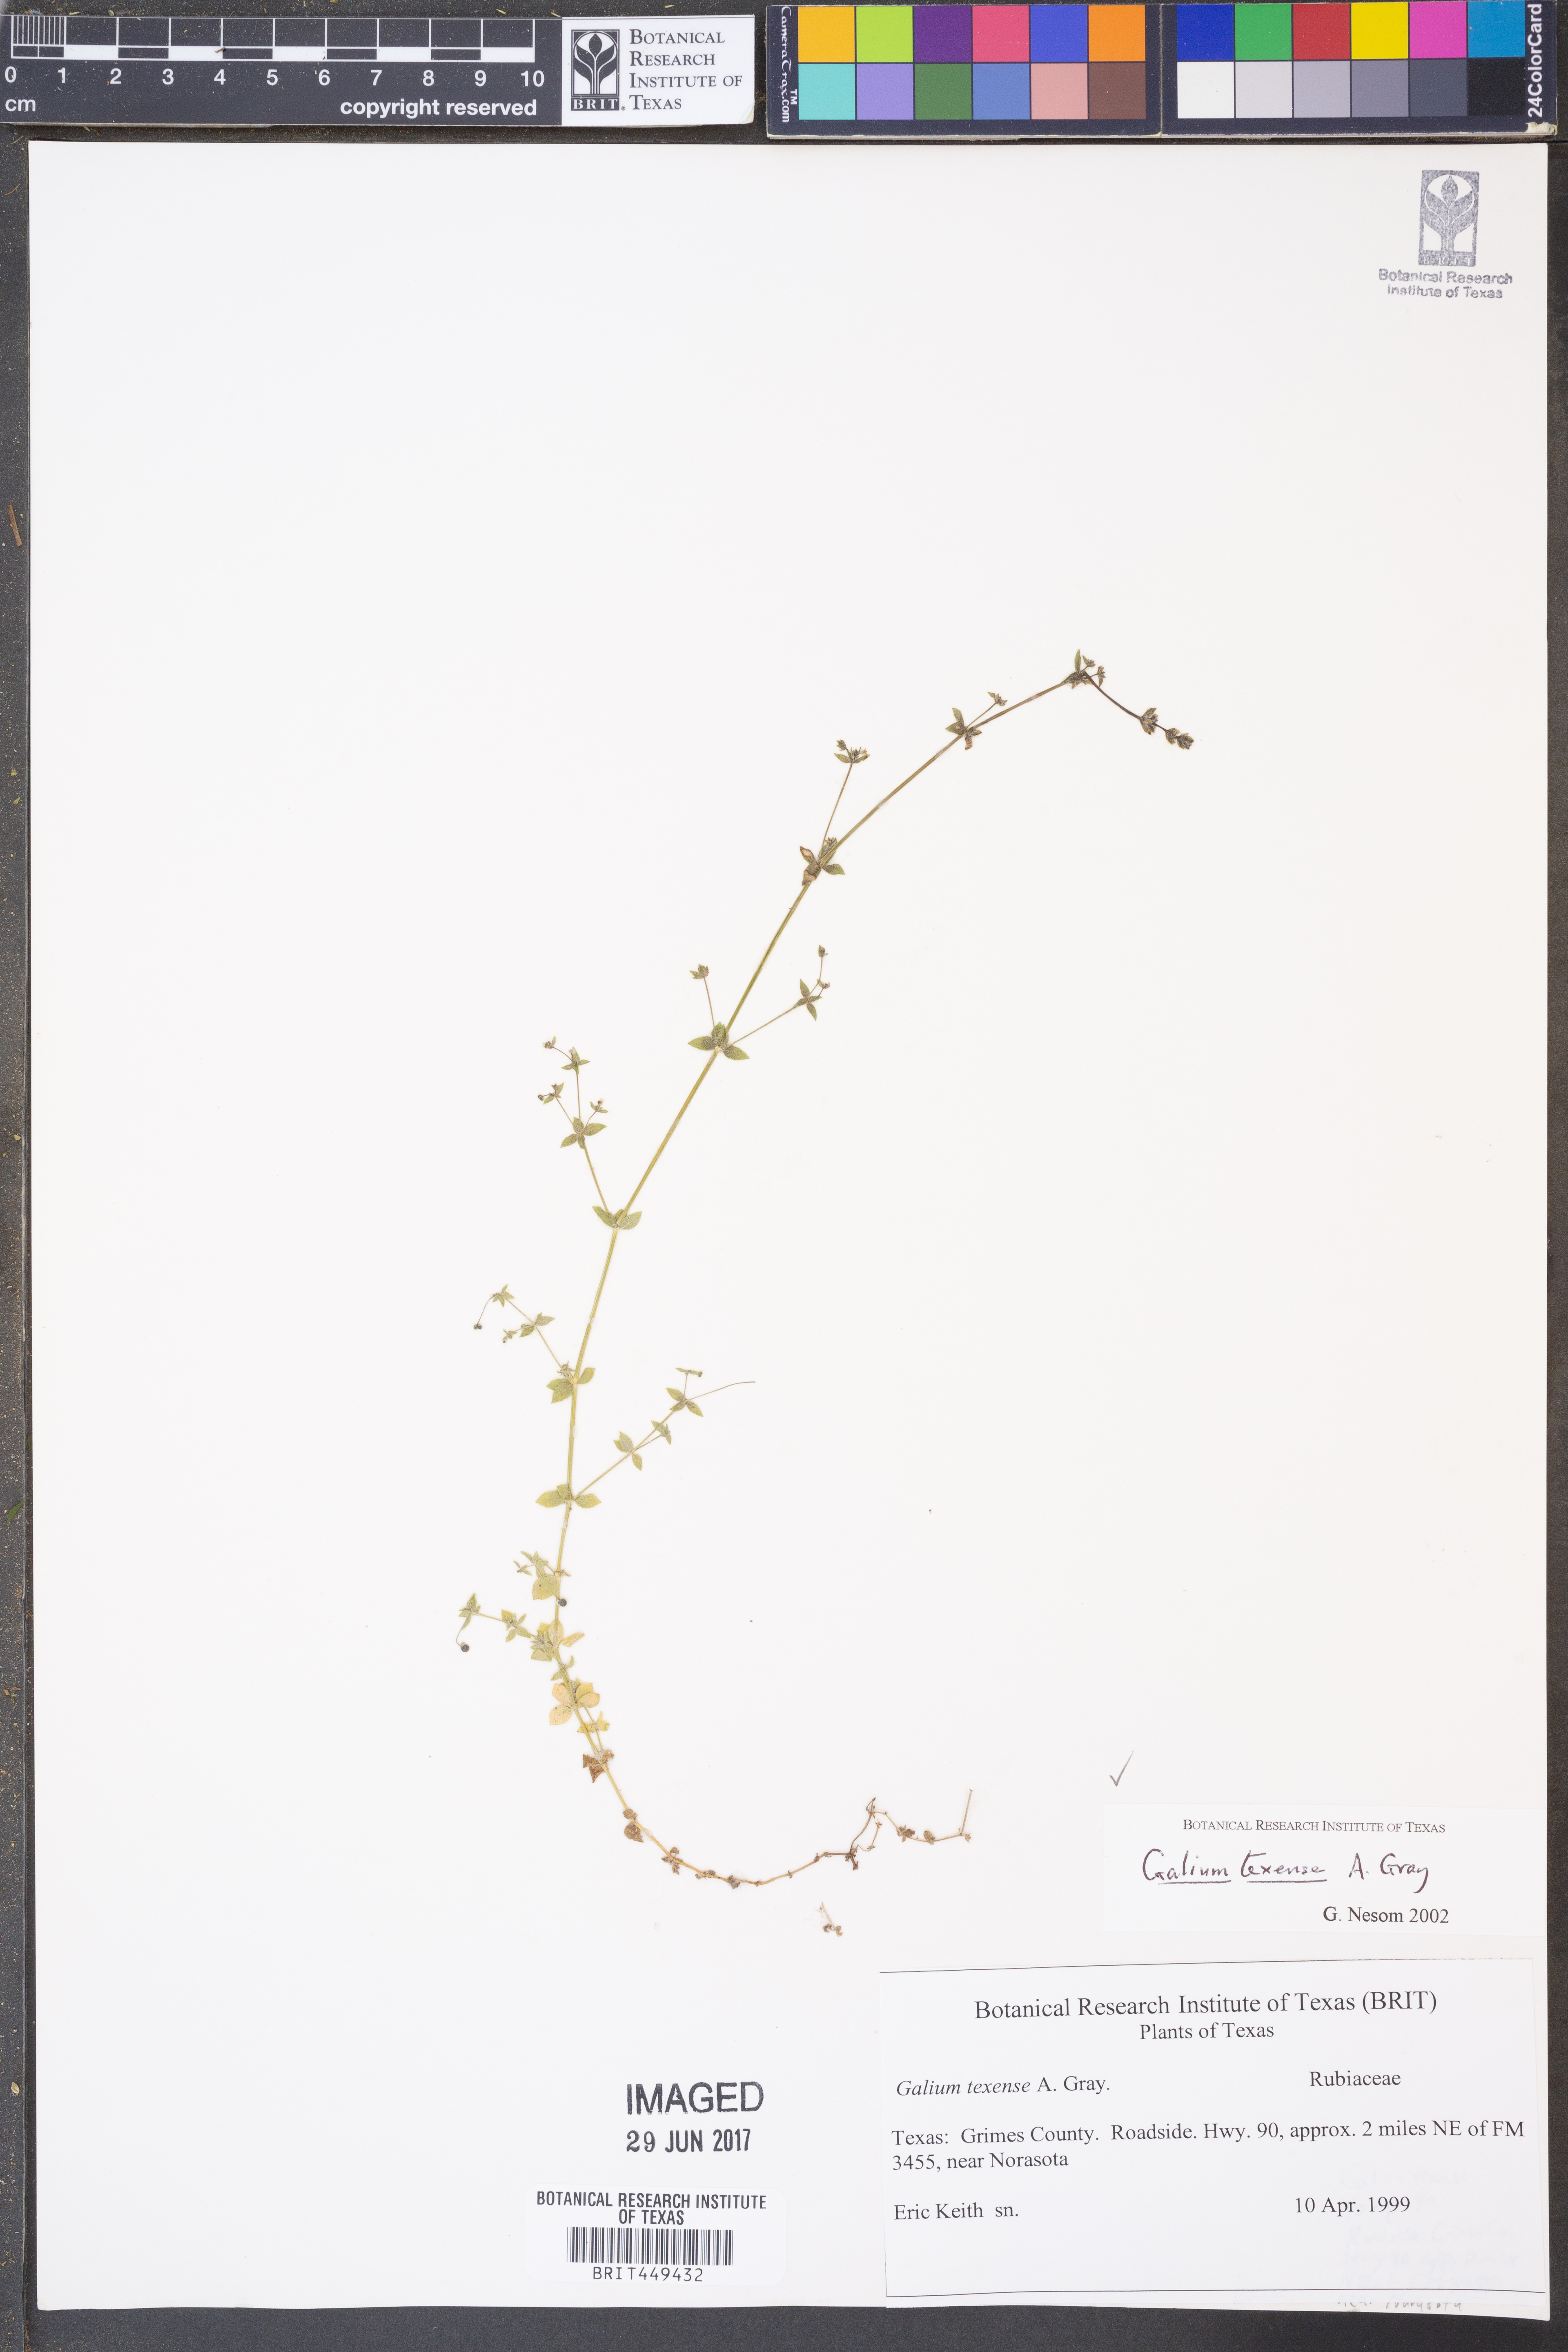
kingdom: Plantae
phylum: Tracheophyta
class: Magnoliopsida
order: Gentianales
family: Rubiaceae
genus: Galium
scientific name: Galium texense
